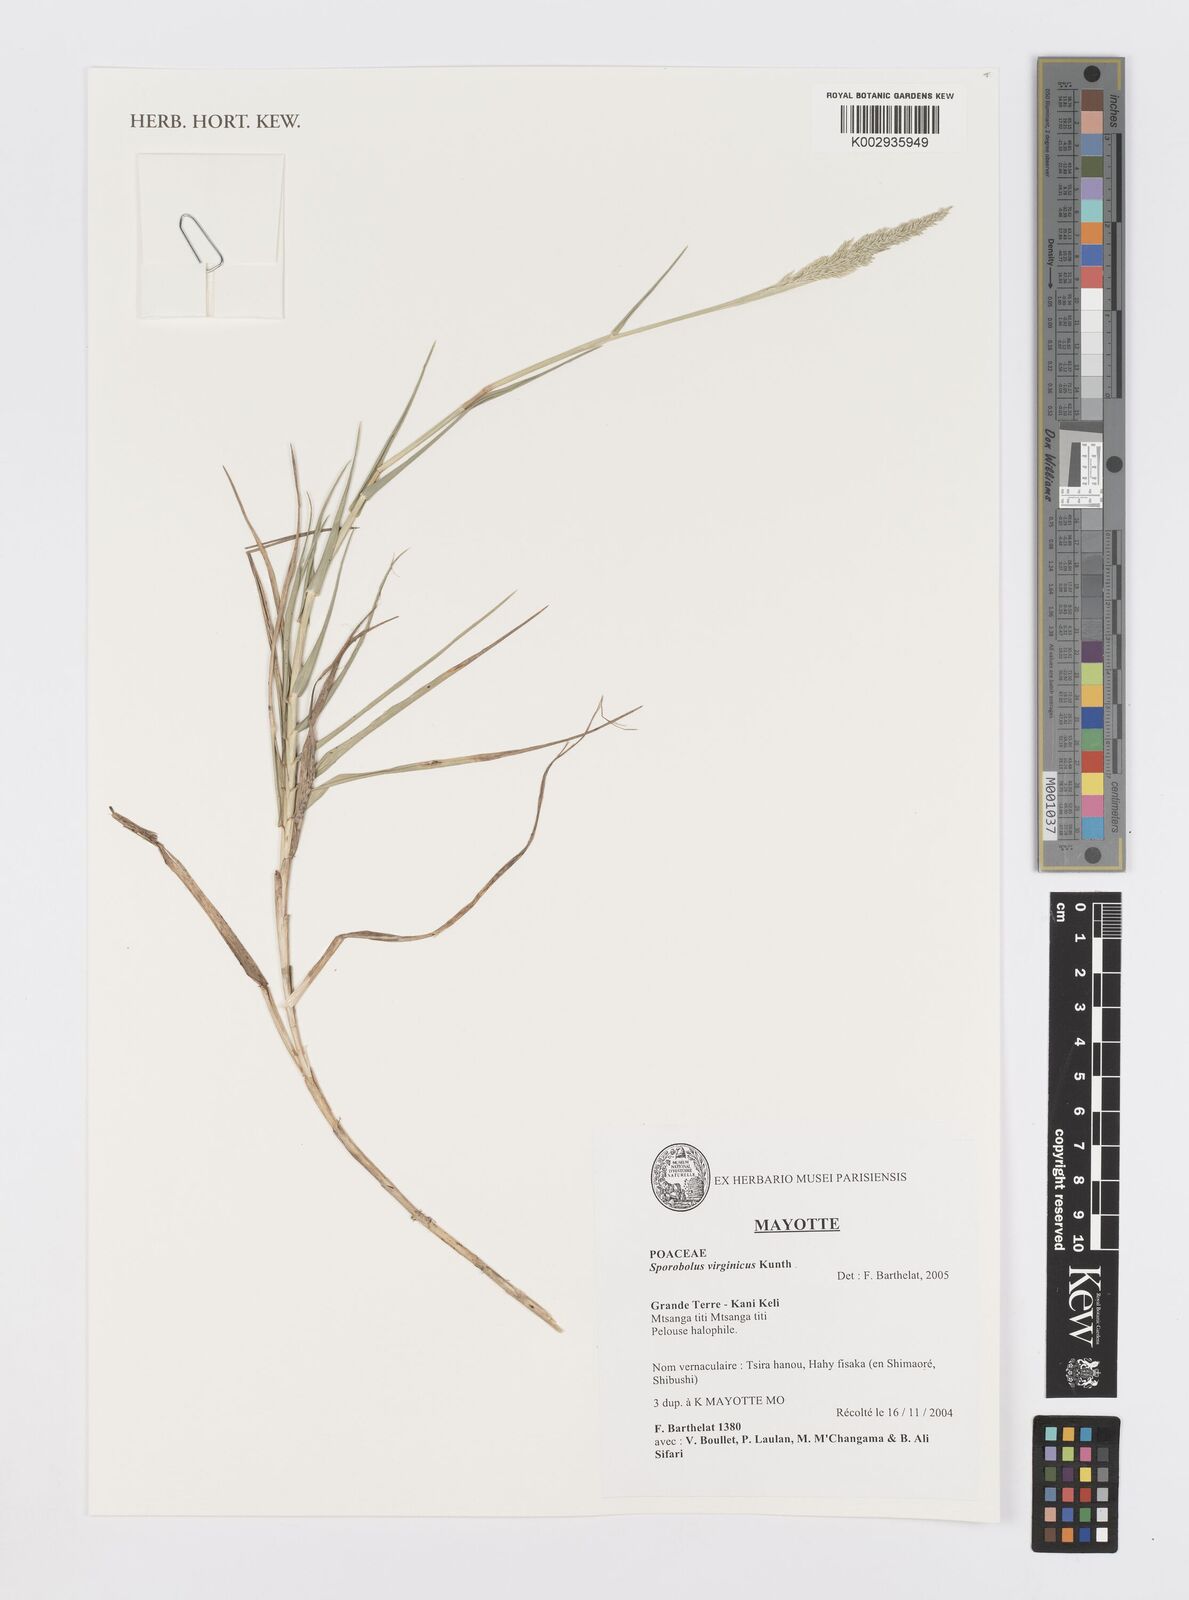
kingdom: Plantae
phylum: Tracheophyta
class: Liliopsida
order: Poales
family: Poaceae
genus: Sporobolus
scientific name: Sporobolus virginicus
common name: Beach dropseed
